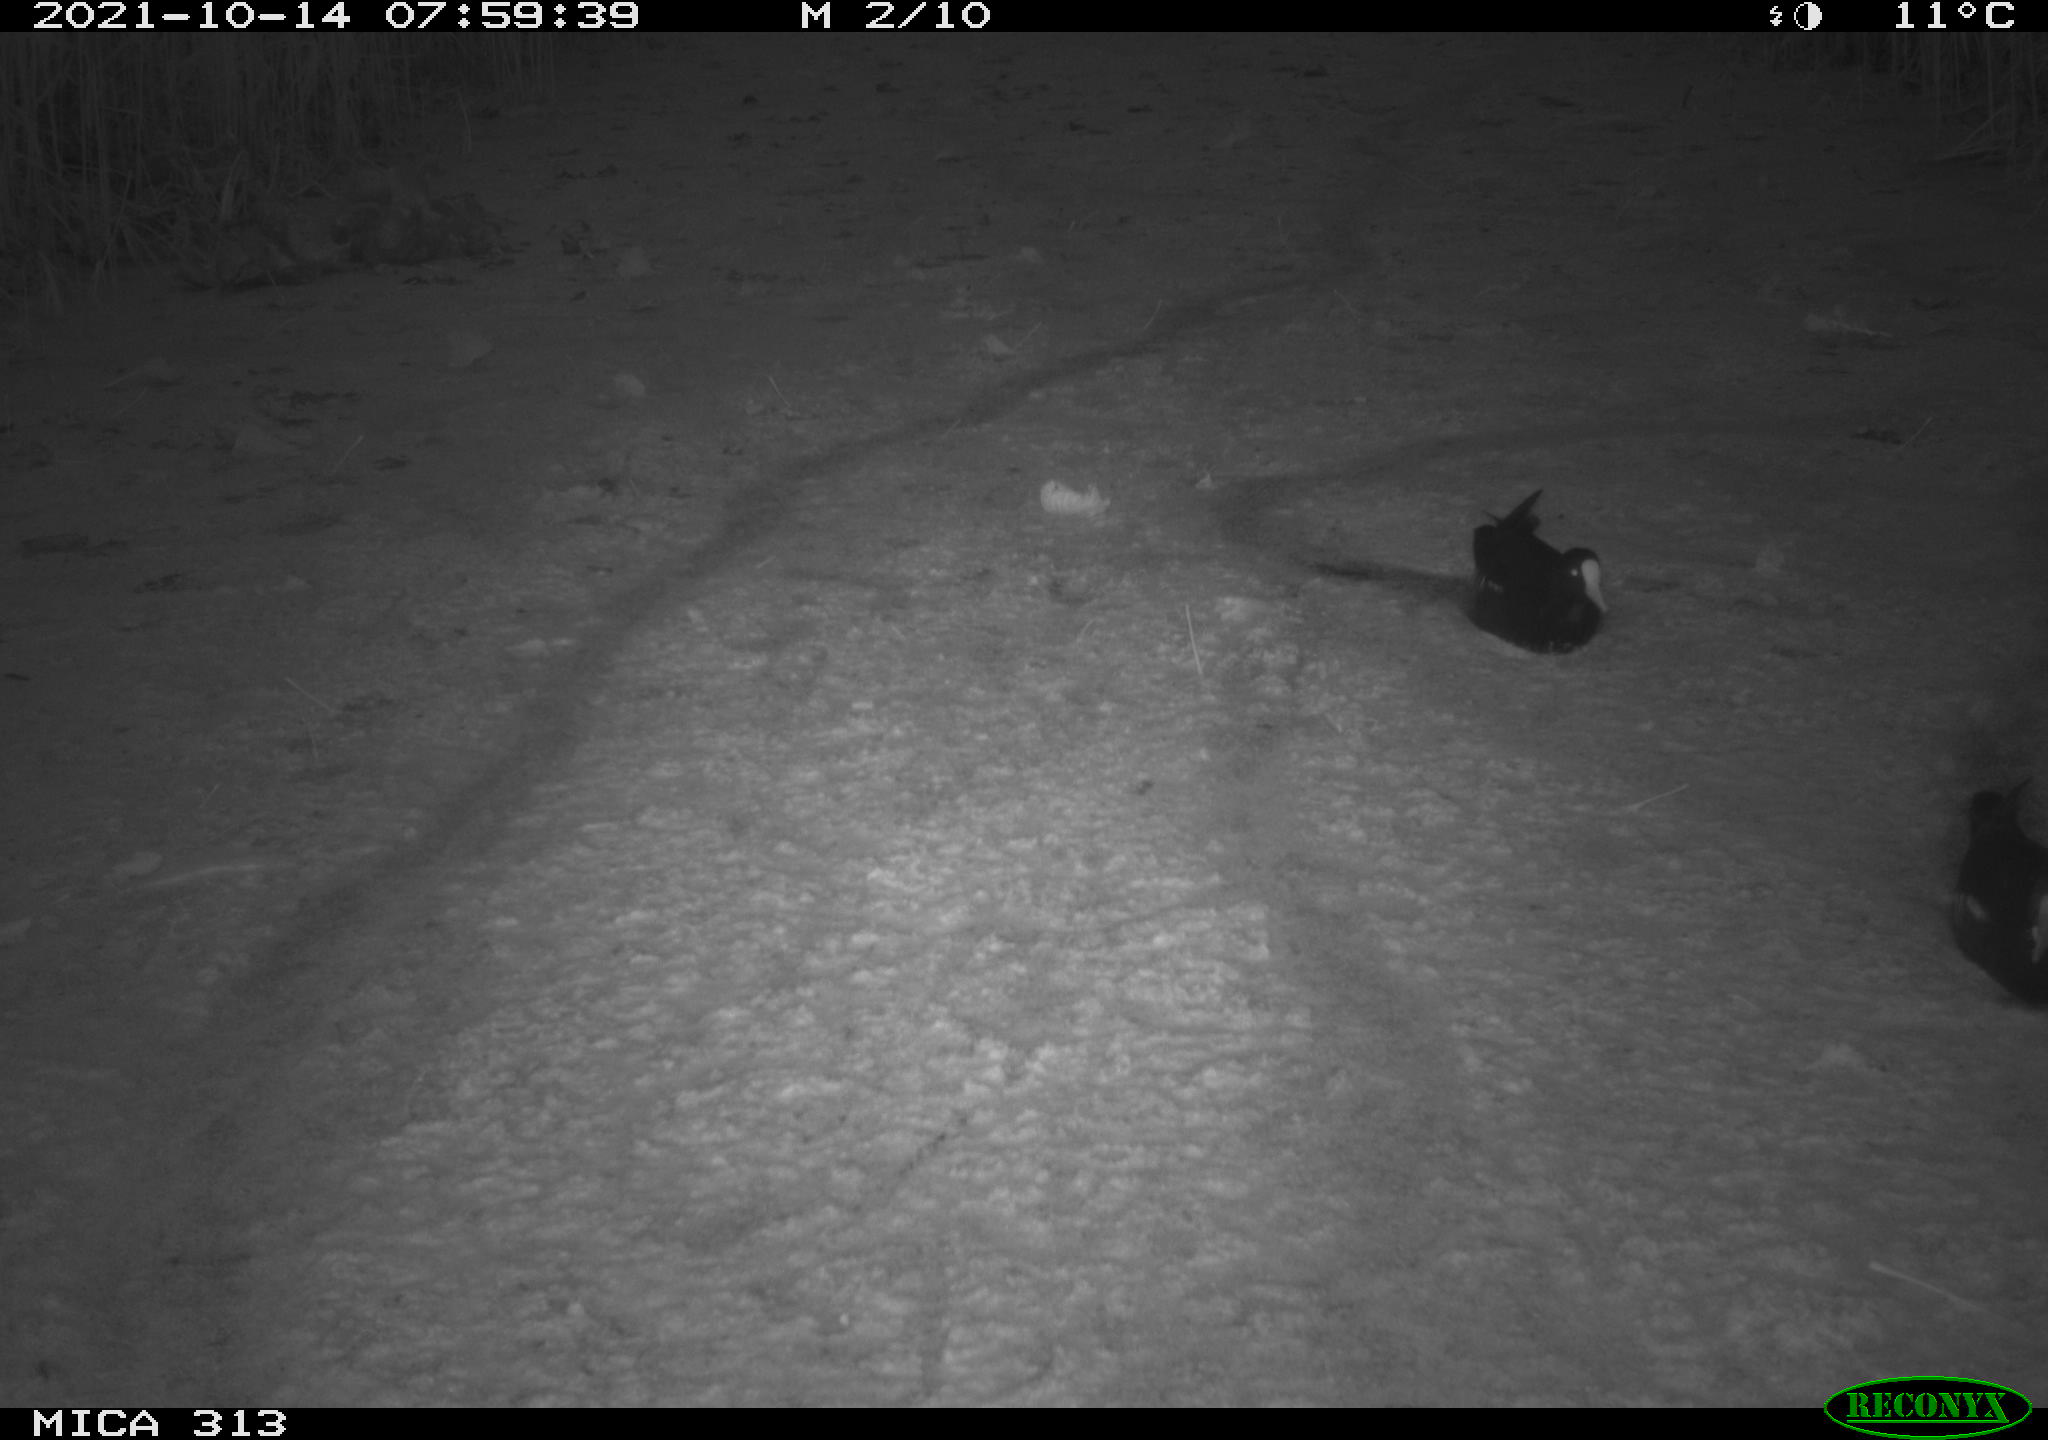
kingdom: Animalia
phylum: Chordata
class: Aves
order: Gruiformes
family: Rallidae
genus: Gallinula
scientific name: Gallinula chloropus
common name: Common moorhen
